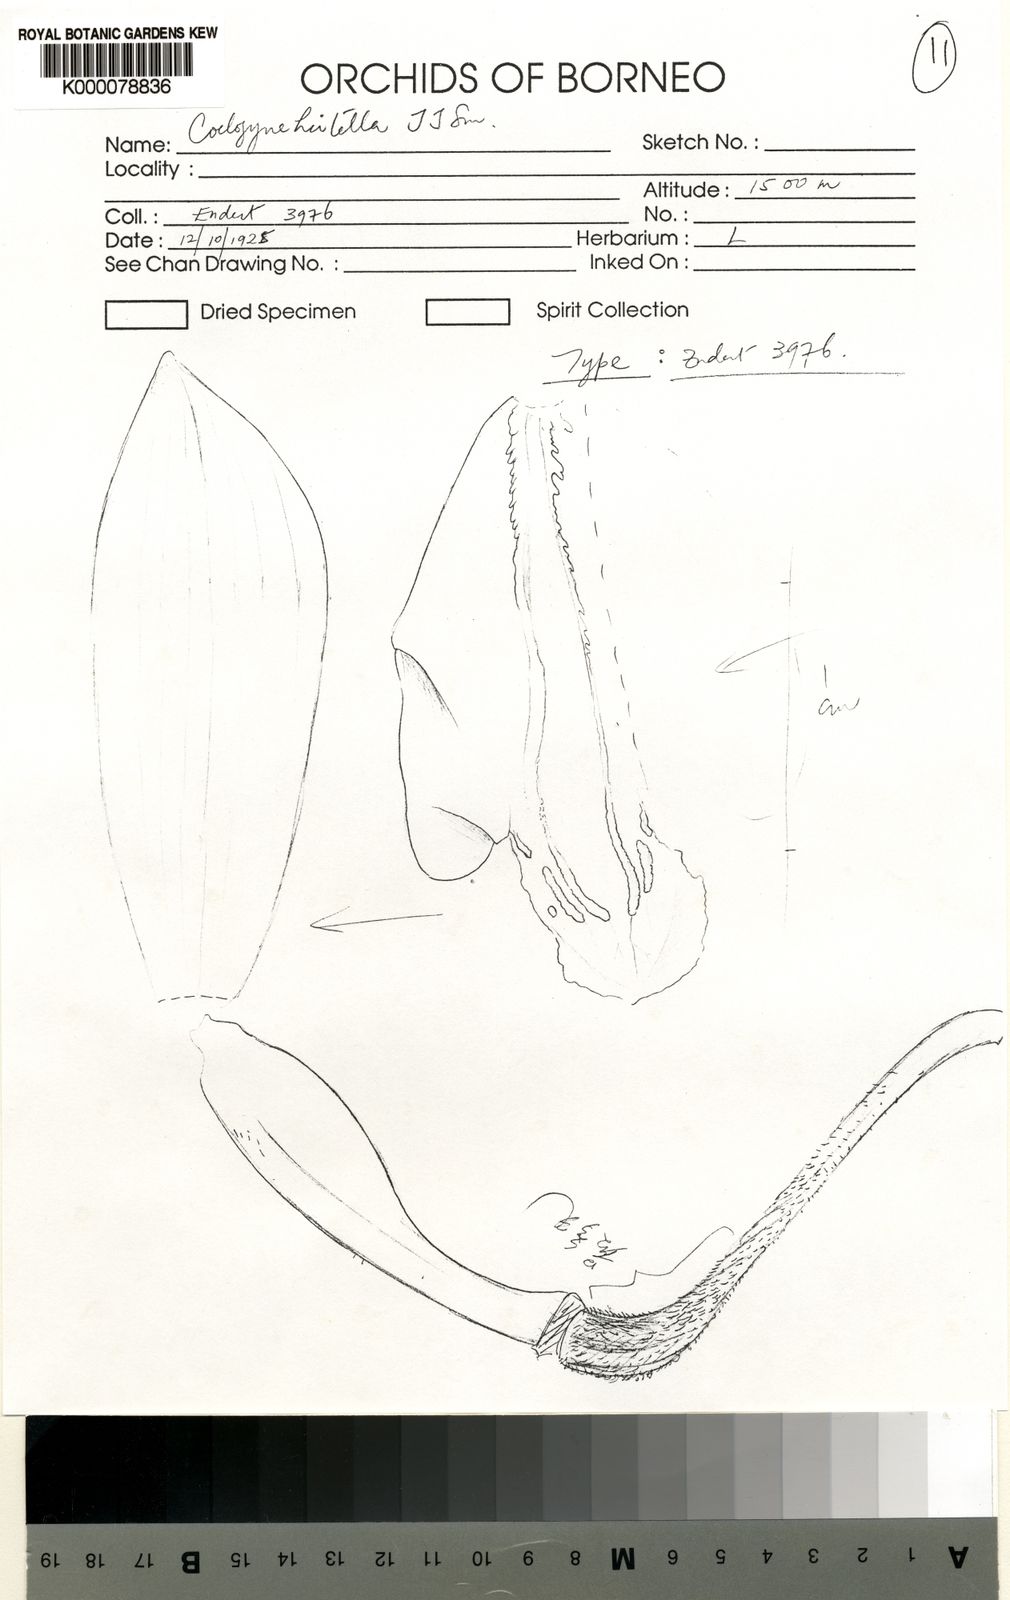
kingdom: Plantae
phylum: Tracheophyta
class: Liliopsida
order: Asparagales
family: Orchidaceae
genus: Coelogyne
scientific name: Coelogyne hirtella
